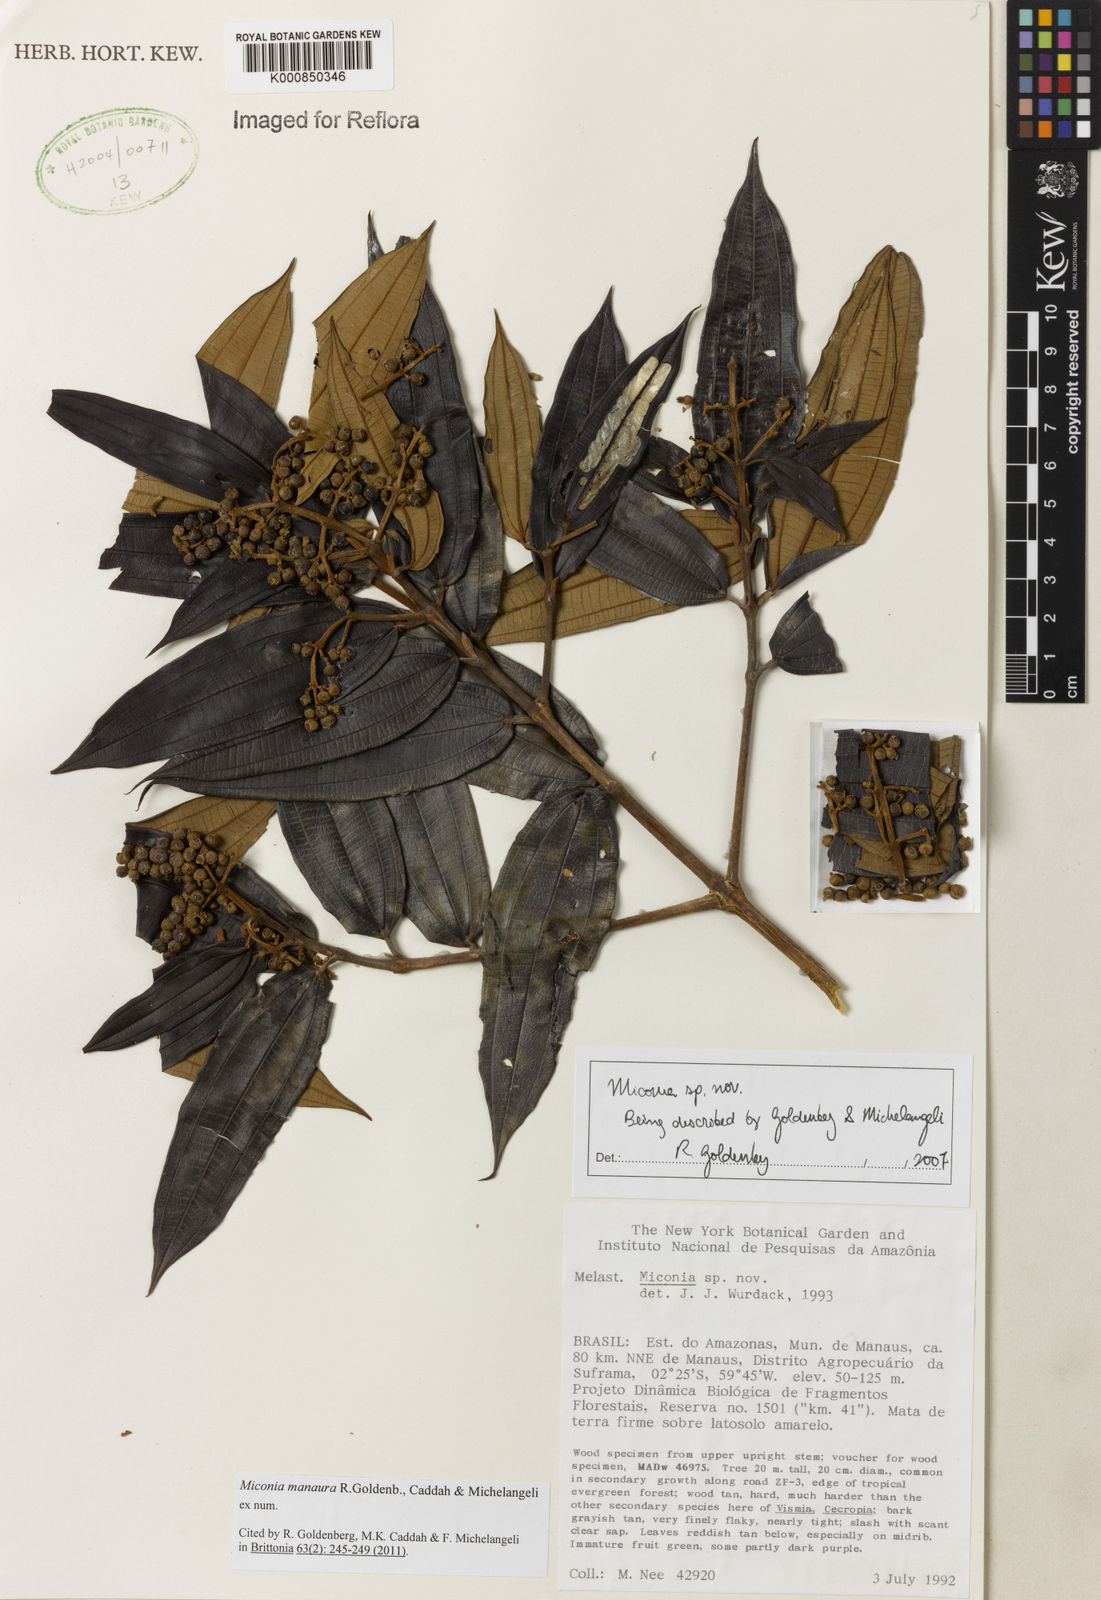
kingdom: Plantae
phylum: Tracheophyta
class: Magnoliopsida
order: Myrtales
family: Melastomataceae
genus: Miconia
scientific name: Miconia manauara
